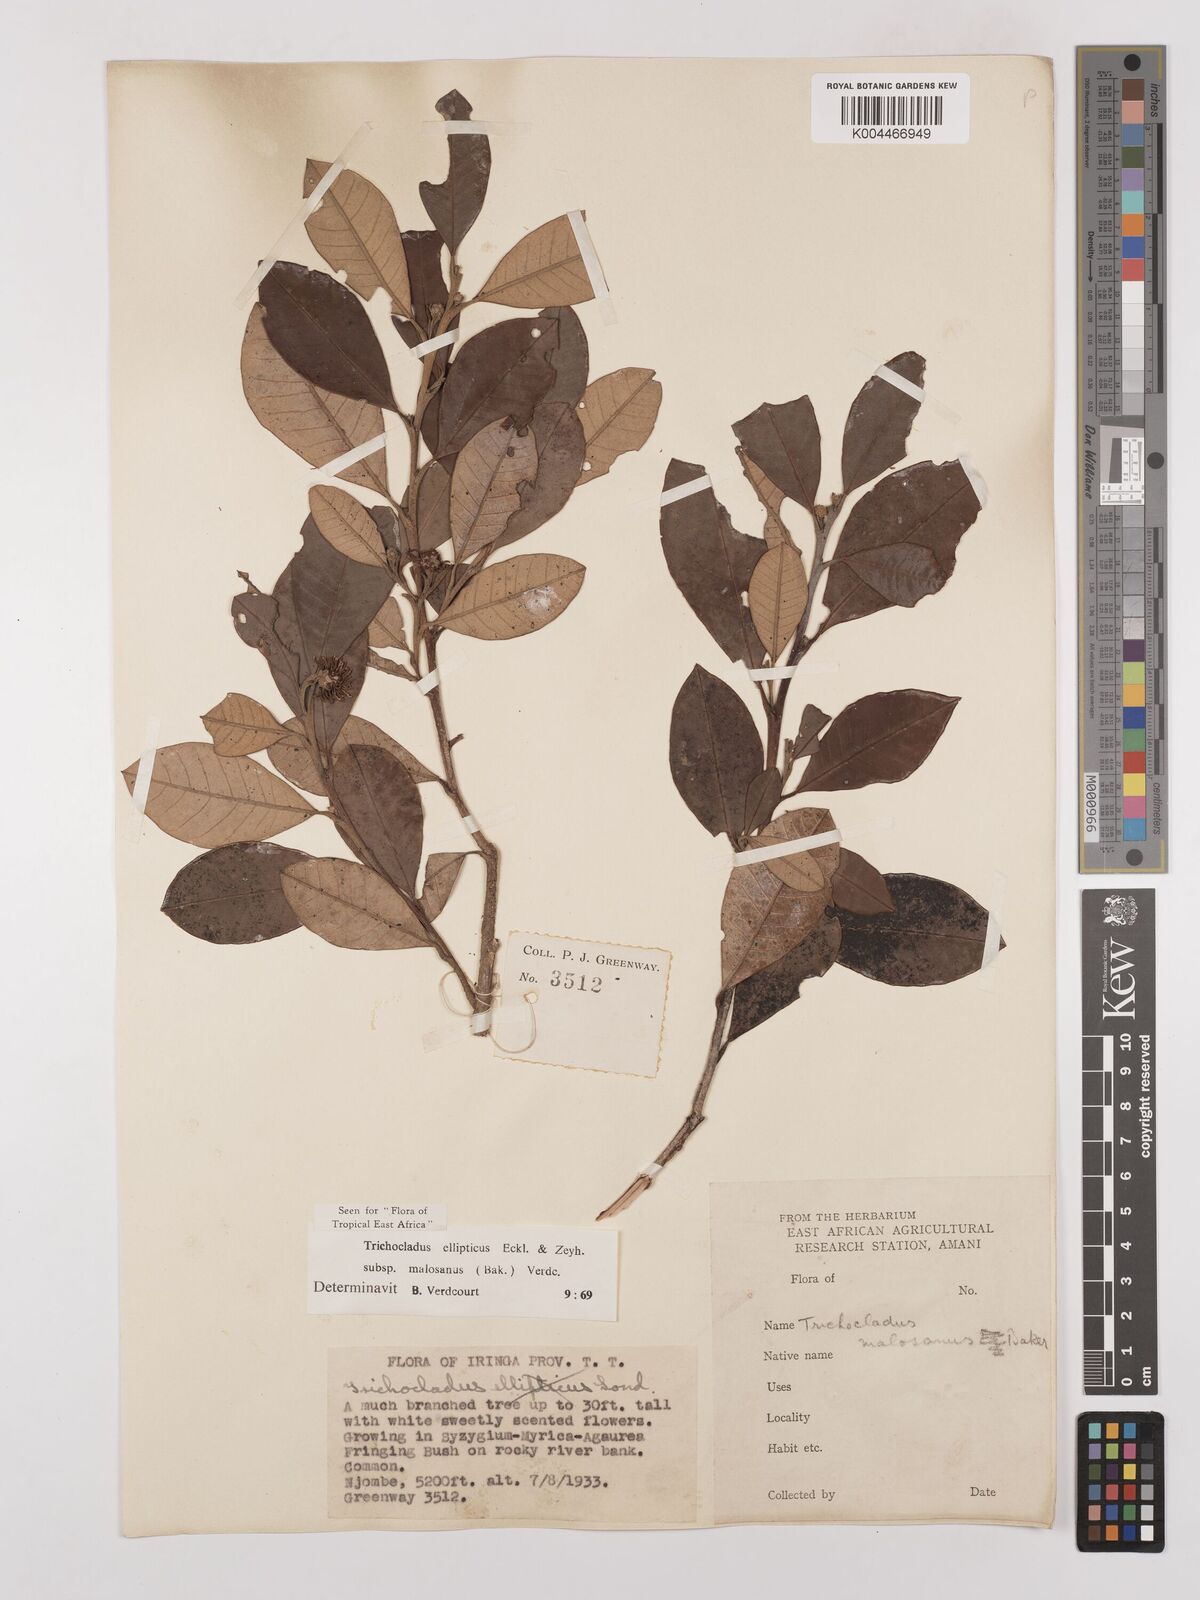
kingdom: Plantae
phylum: Tracheophyta
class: Magnoliopsida
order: Saxifragales
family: Hamamelidaceae
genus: Trichocladus
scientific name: Trichocladus ellipticus
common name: White witch-hazel
